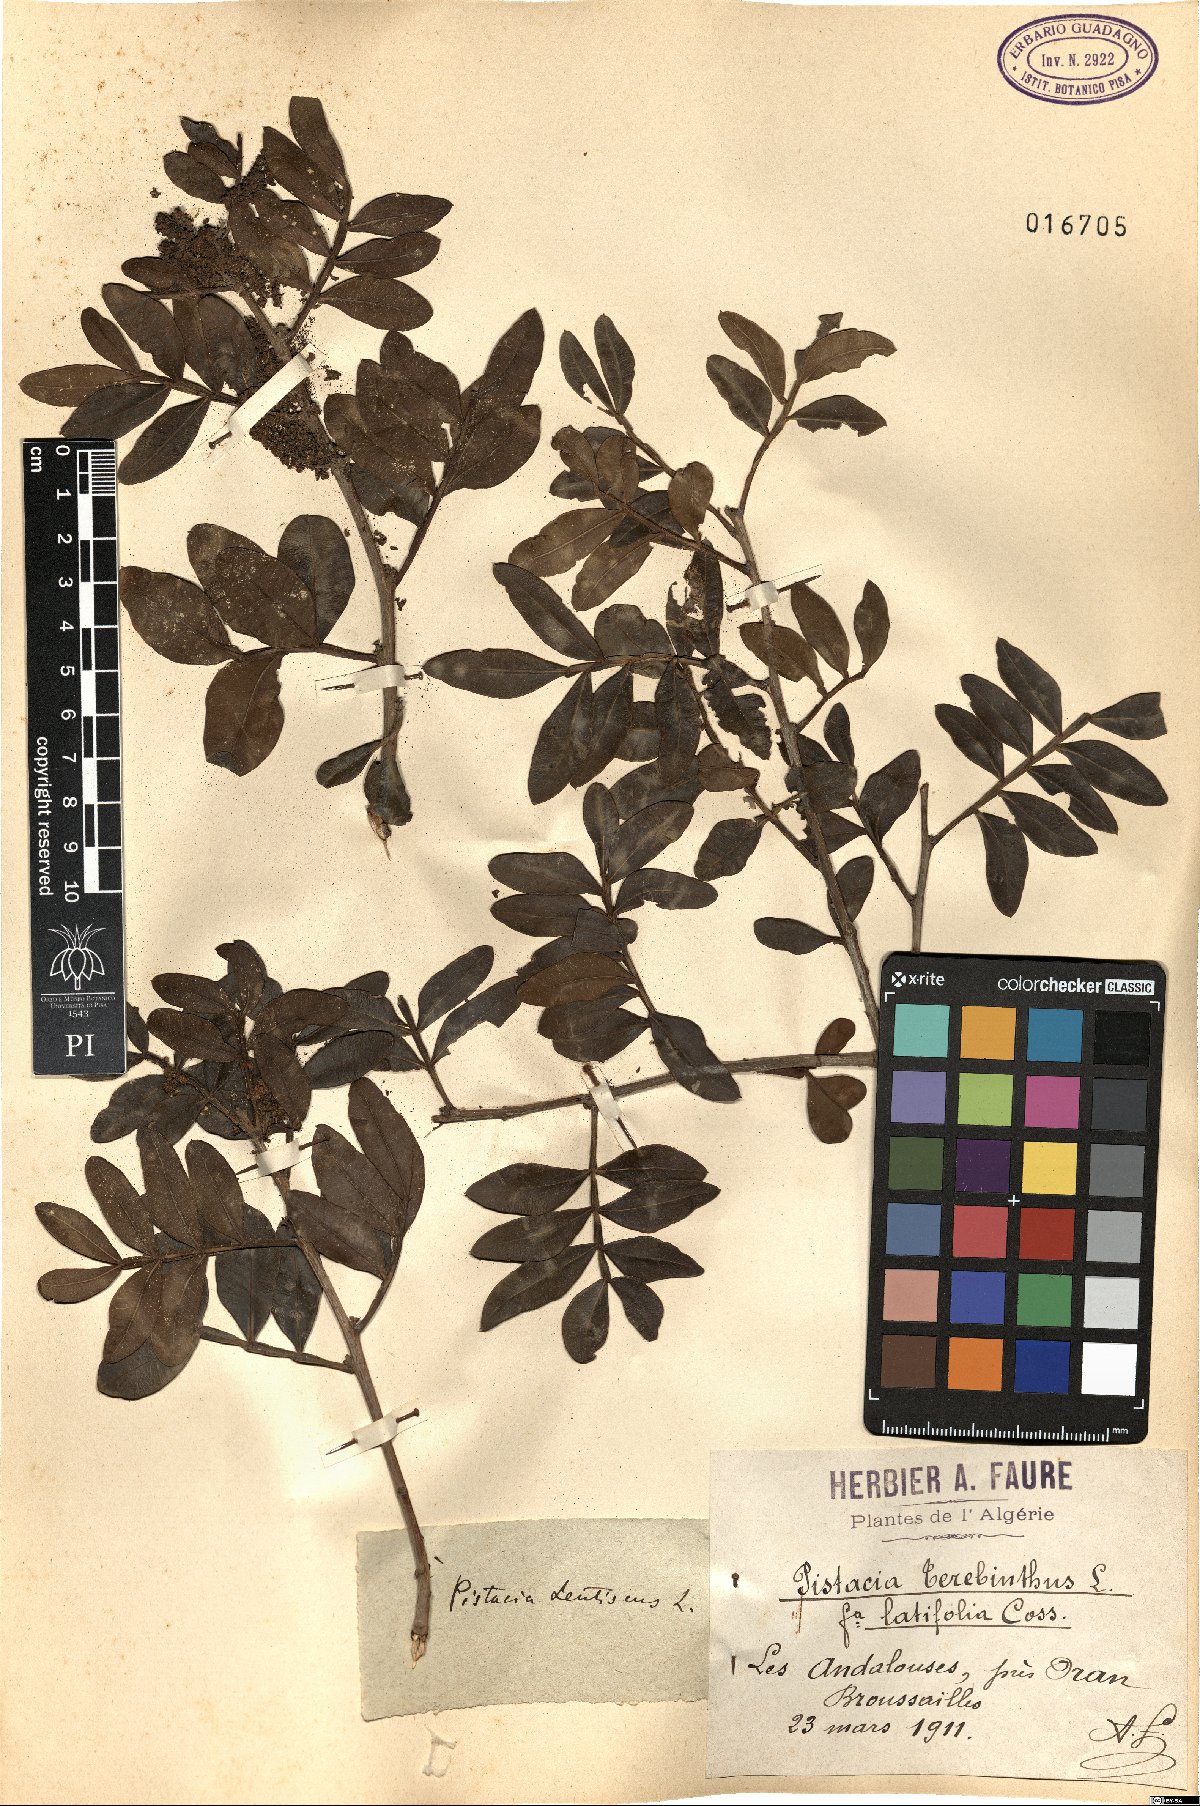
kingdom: Plantae
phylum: Tracheophyta
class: Magnoliopsida
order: Sapindales
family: Anacardiaceae
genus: Pistacia
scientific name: Pistacia lentiscus
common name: Lentisk
